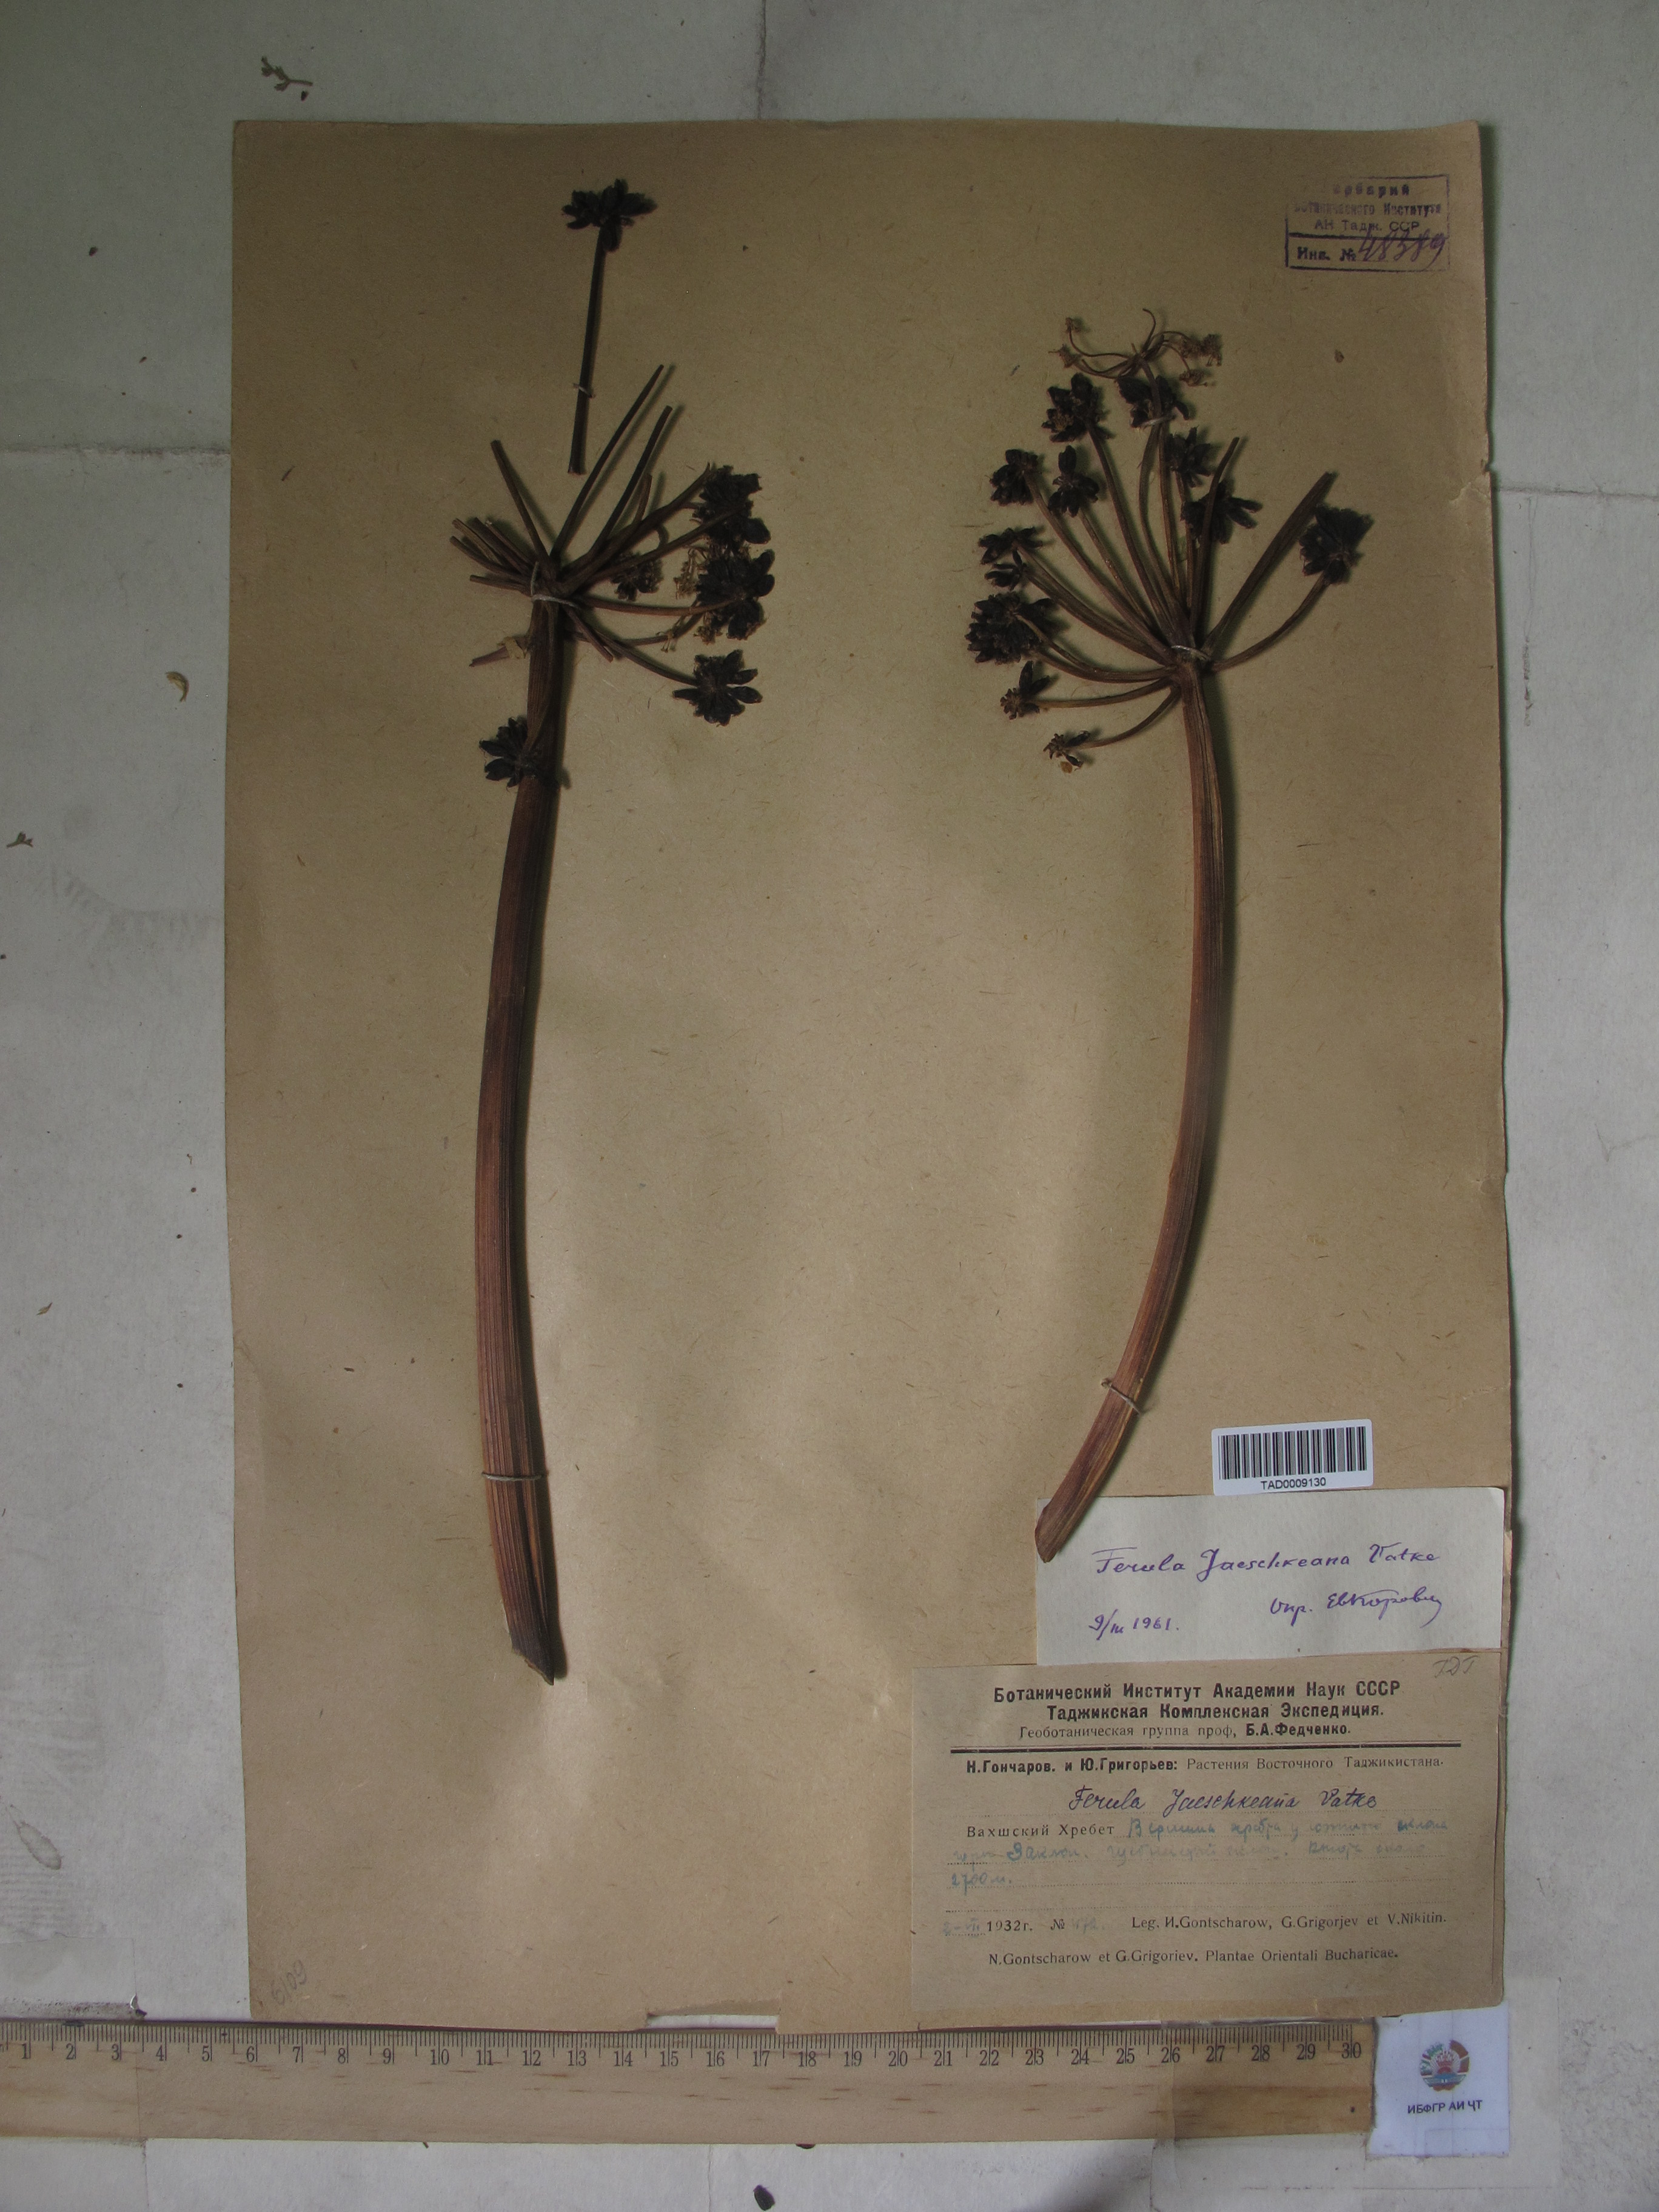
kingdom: Plantae
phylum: Tracheophyta
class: Magnoliopsida
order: Apiales
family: Apiaceae
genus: Ferula
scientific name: Ferula jaeschkeana
